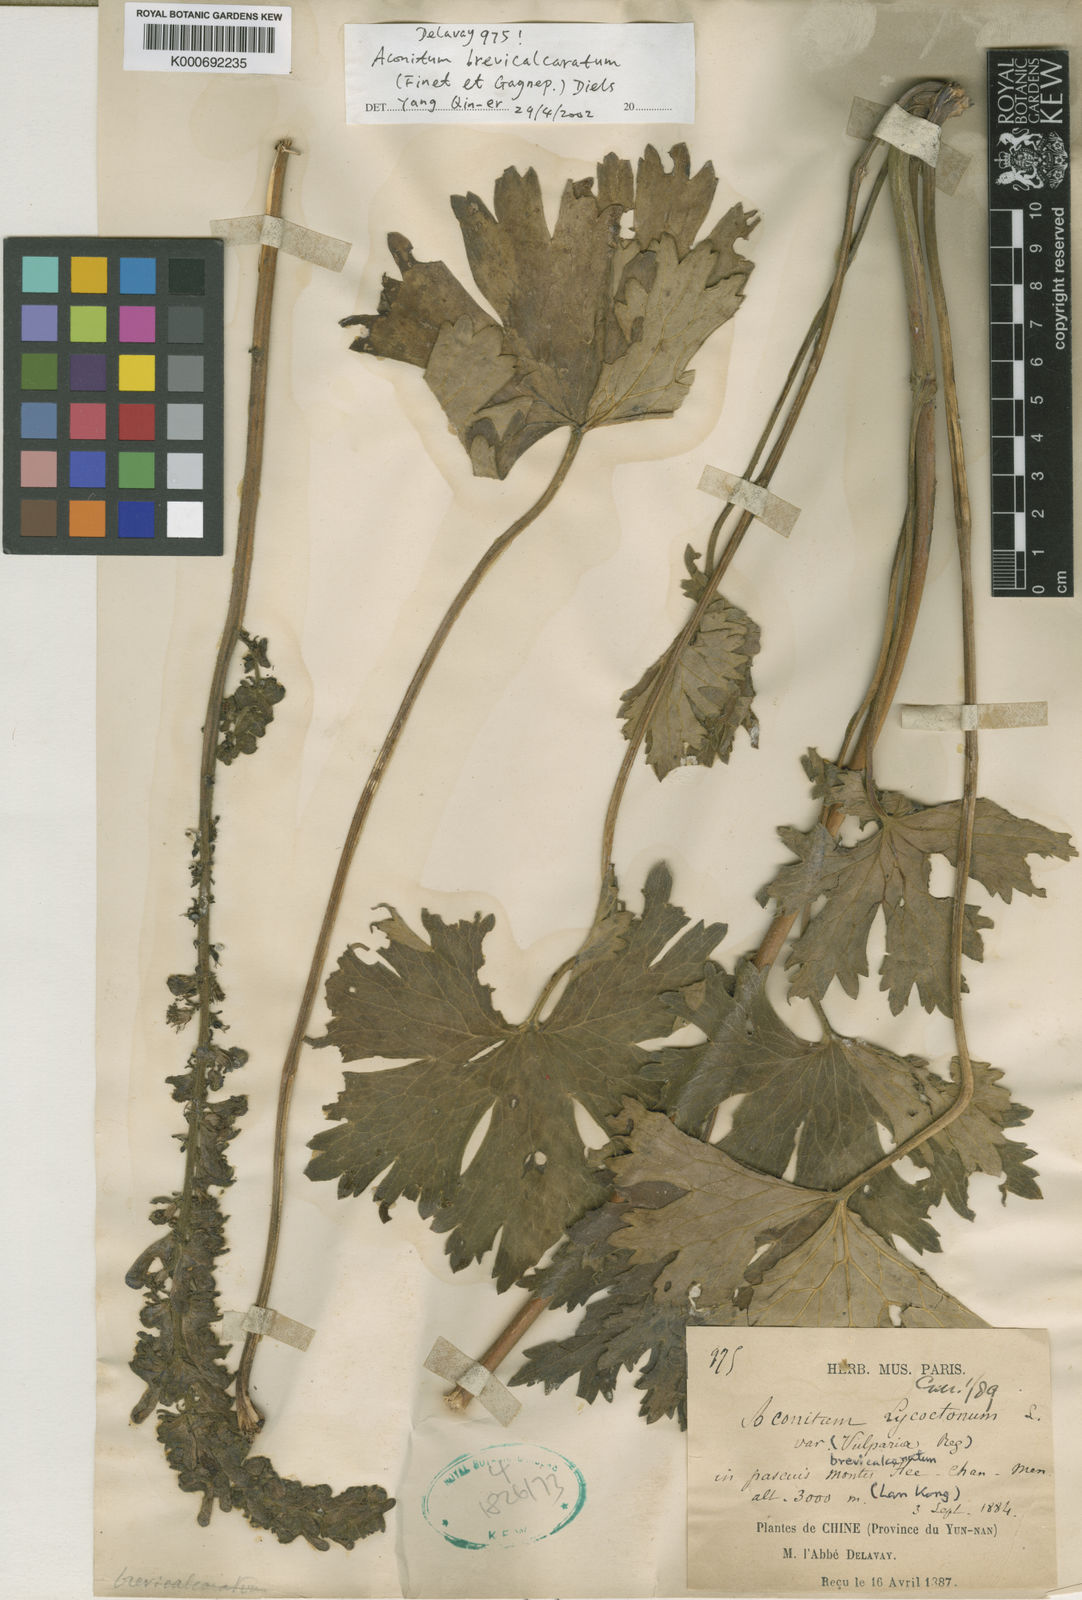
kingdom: Plantae
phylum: Tracheophyta
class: Magnoliopsida
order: Ranunculales
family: Ranunculaceae
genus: Aconitum
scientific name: Aconitum brevicalcaratum
